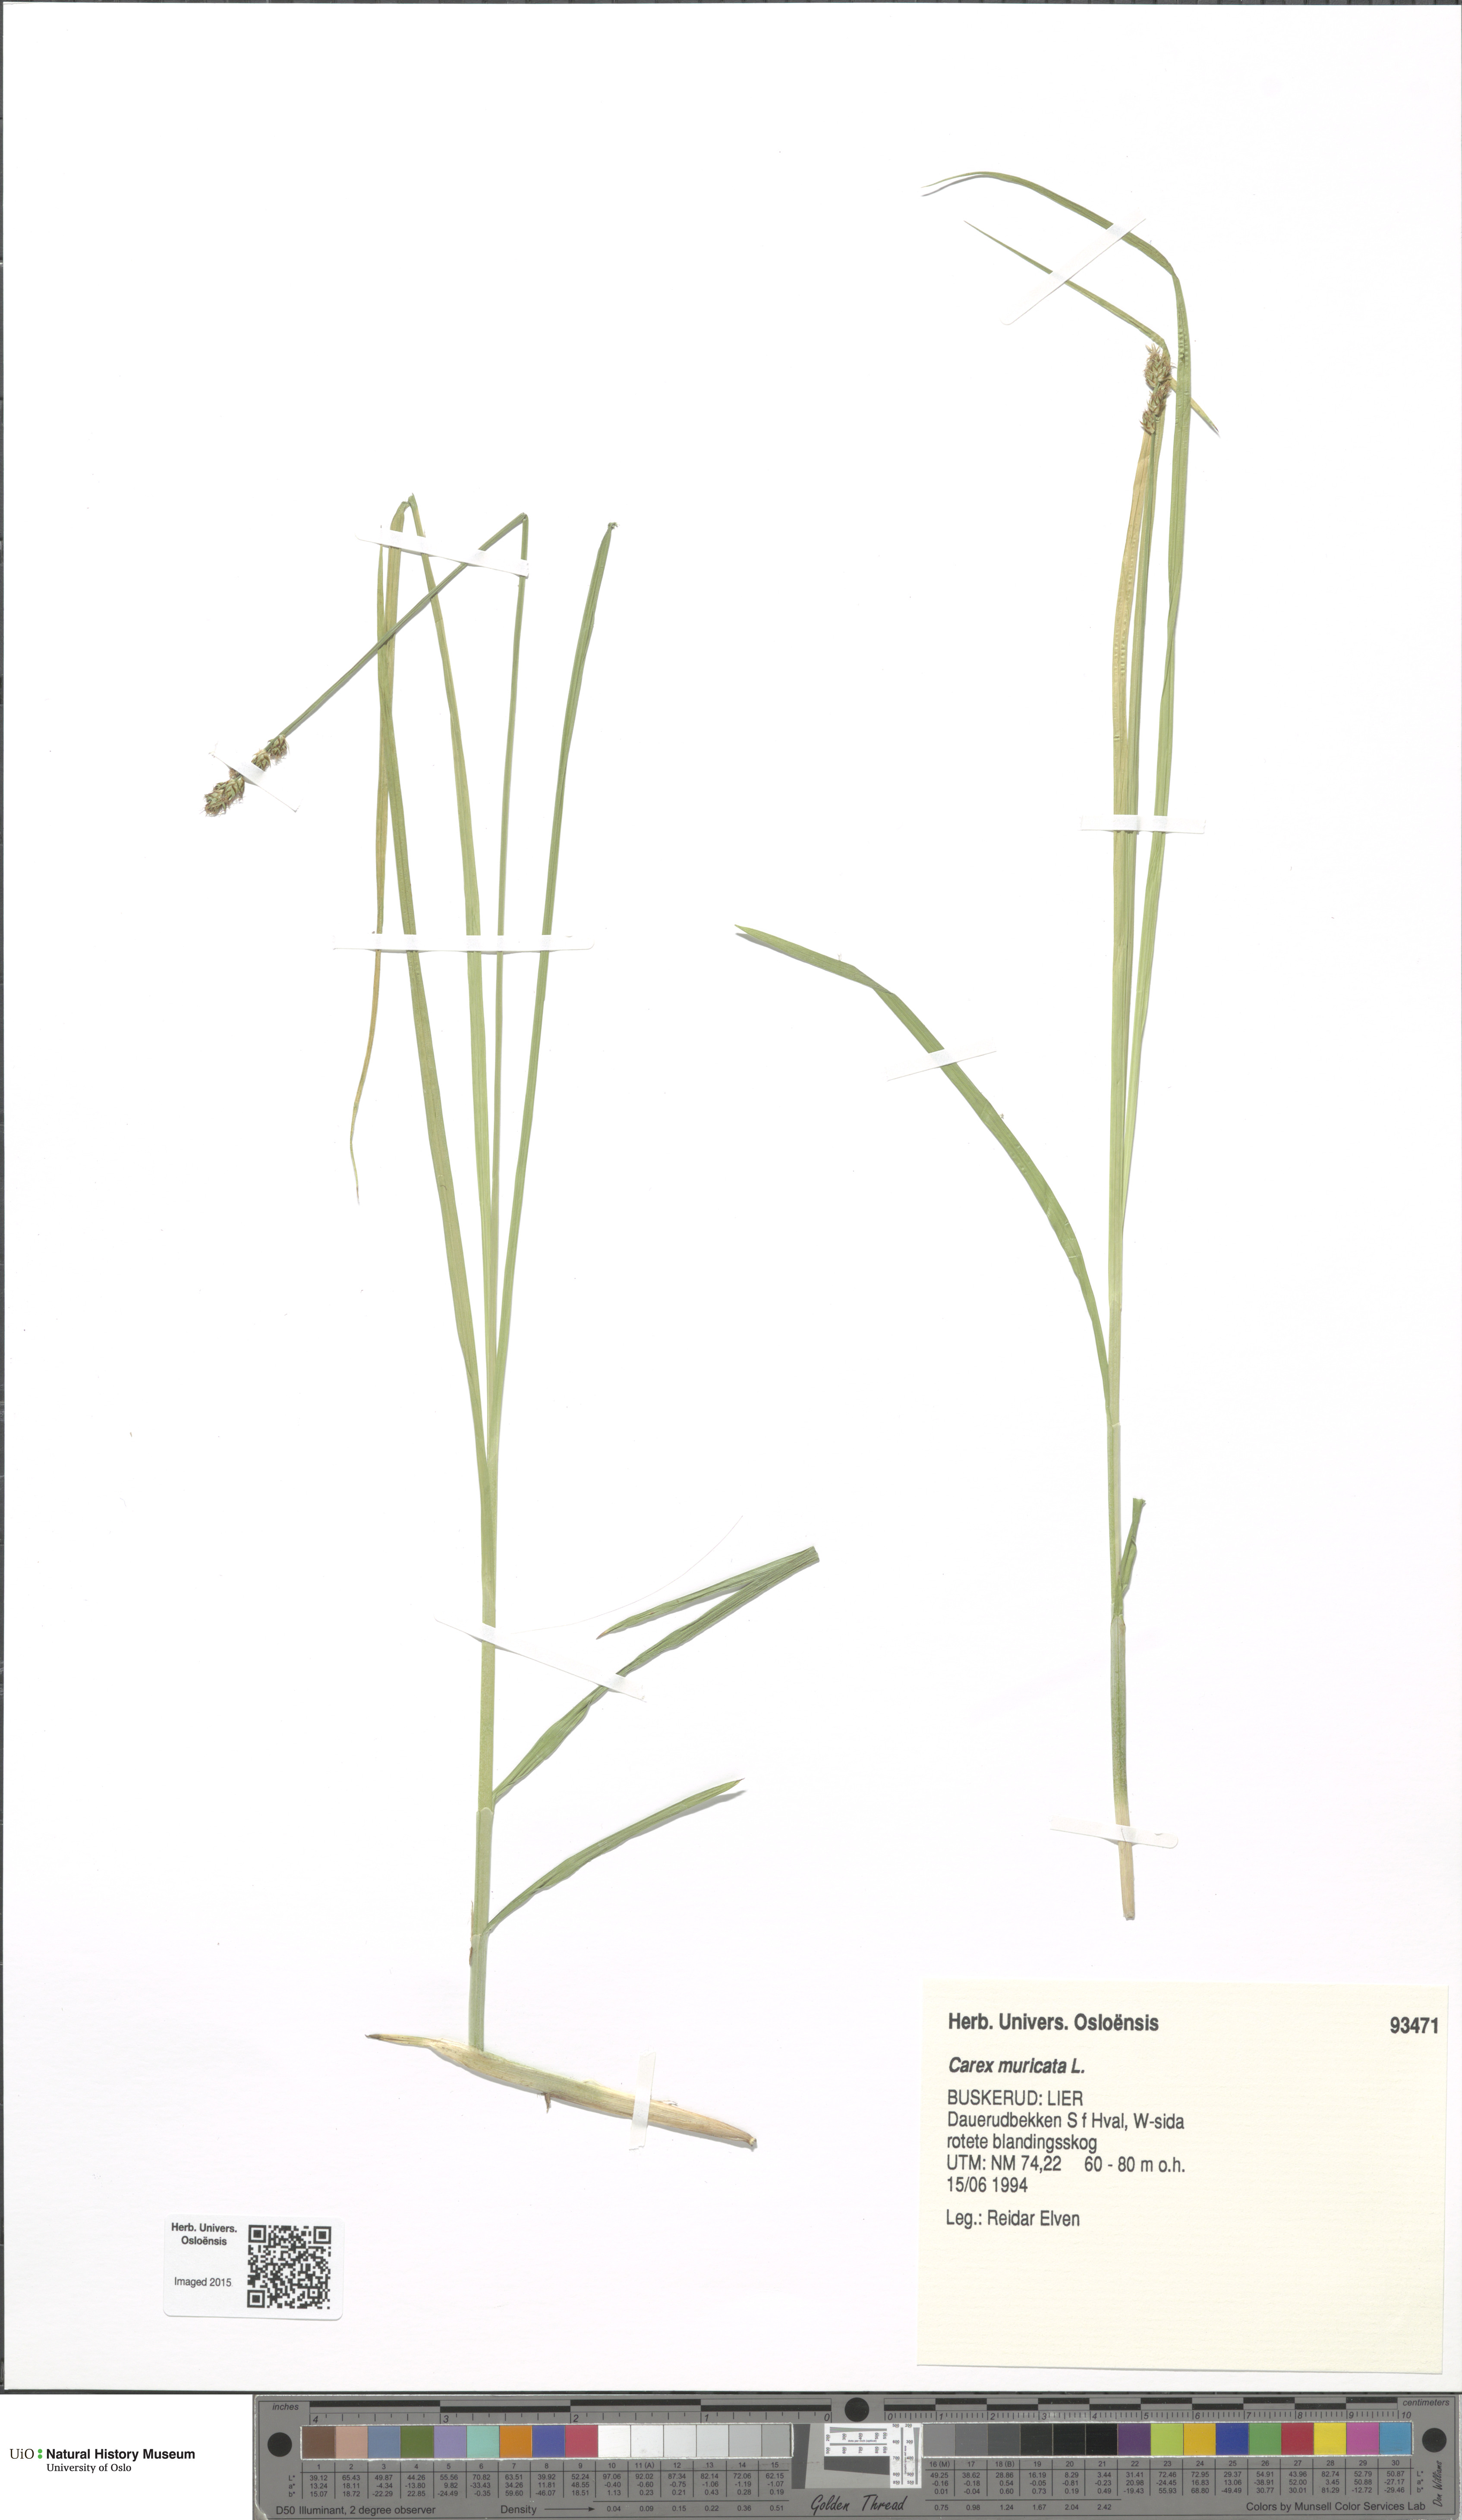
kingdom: Plantae
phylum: Tracheophyta
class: Liliopsida
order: Poales
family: Cyperaceae
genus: Carex
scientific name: Carex muricata
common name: Rough sedge
